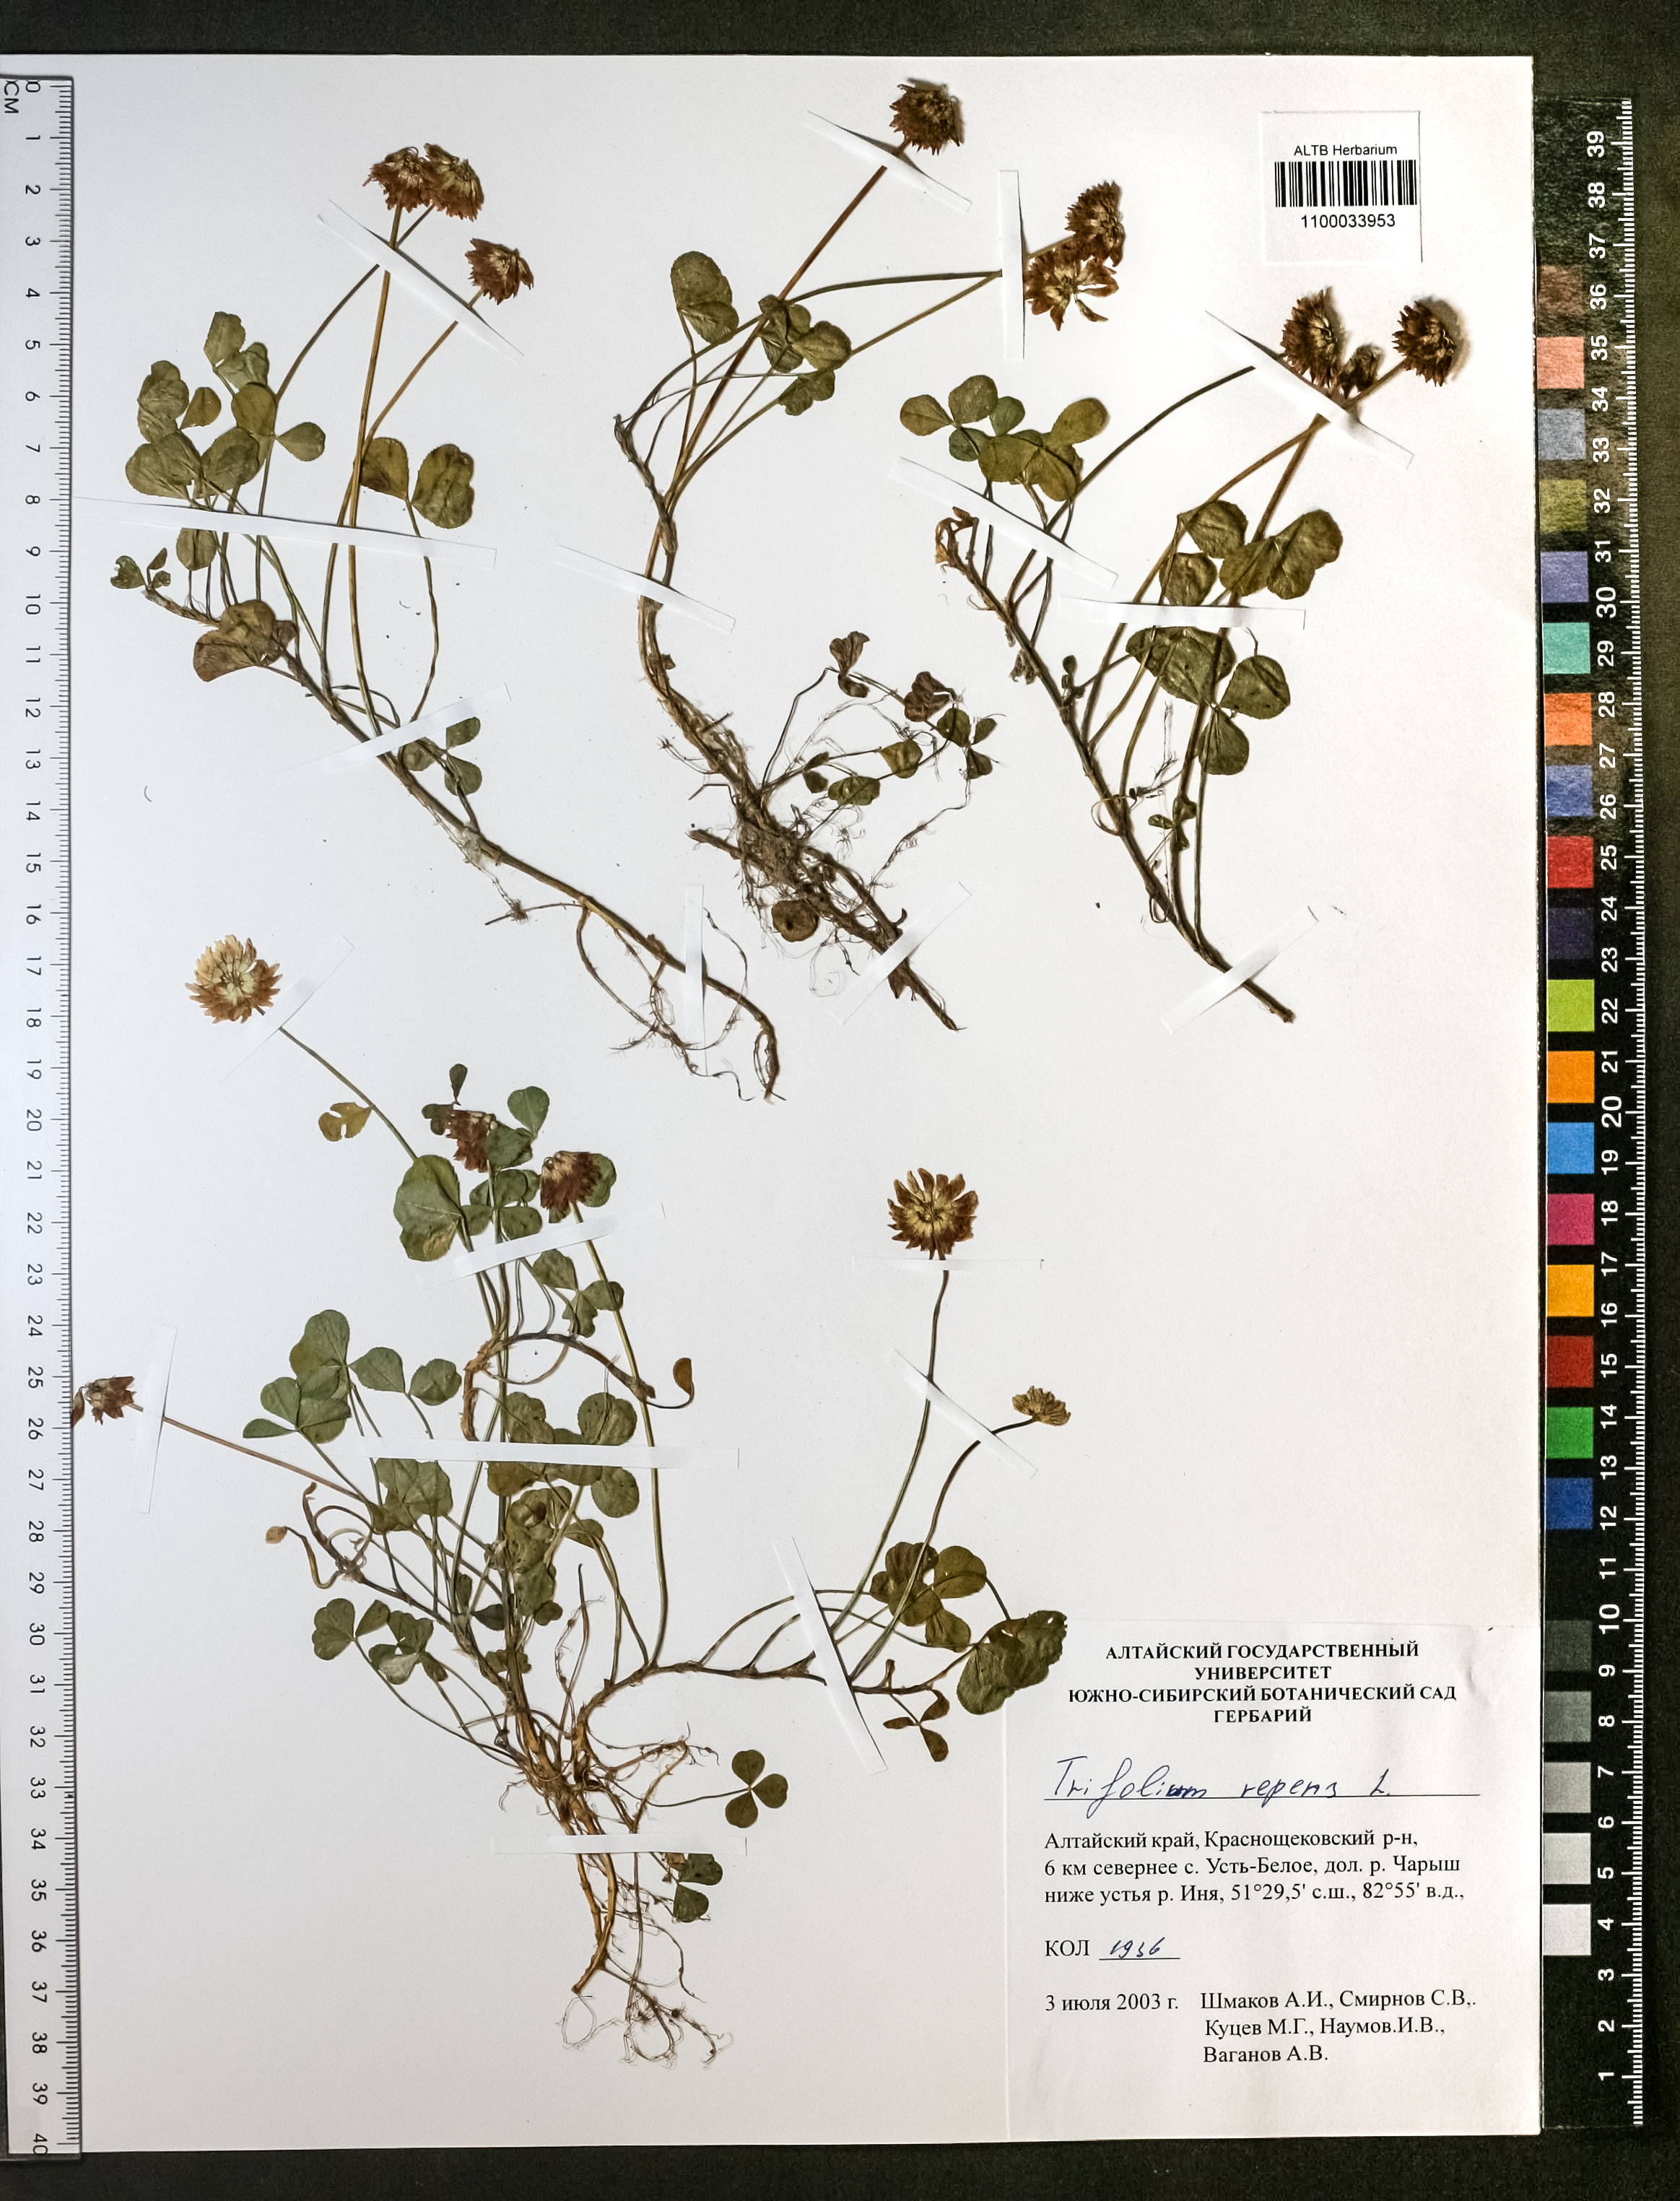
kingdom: Plantae
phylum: Tracheophyta
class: Magnoliopsida
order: Fabales
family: Fabaceae
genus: Trifolium
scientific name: Trifolium repens
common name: White clover
